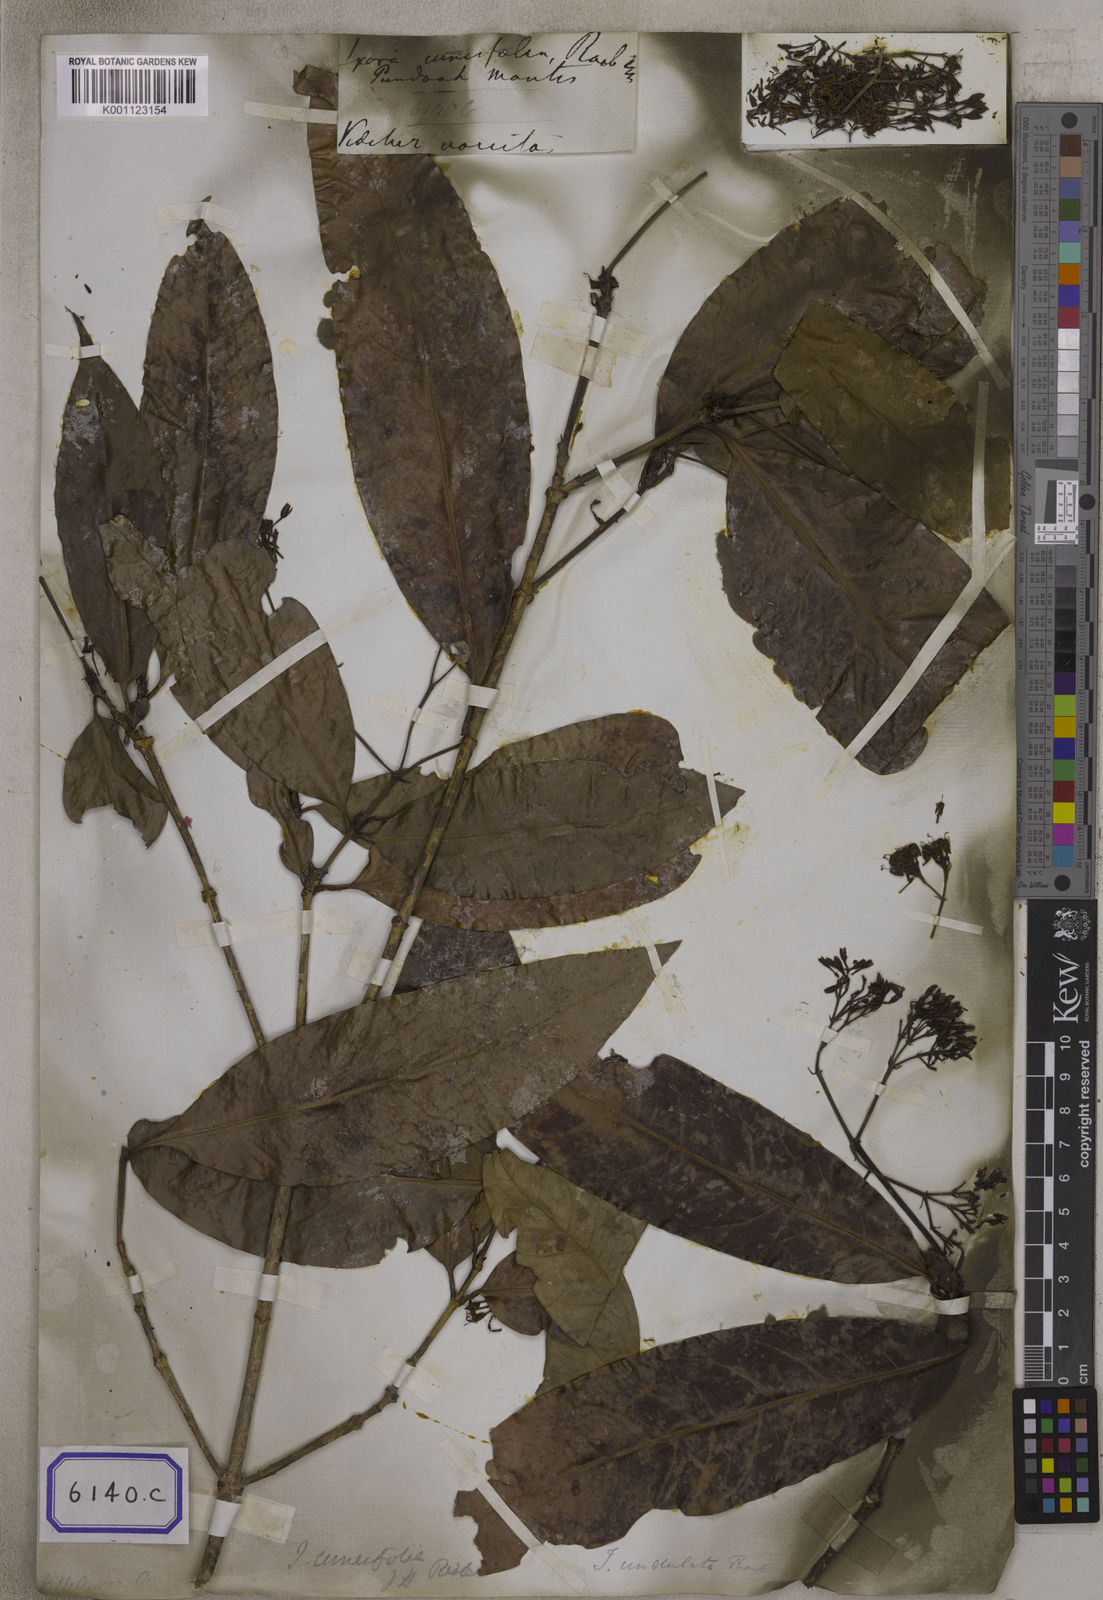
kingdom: Plantae
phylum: Tracheophyta
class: Magnoliopsida
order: Gentianales
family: Rubiaceae
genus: Ixora
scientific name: Ixora cuneifolia
